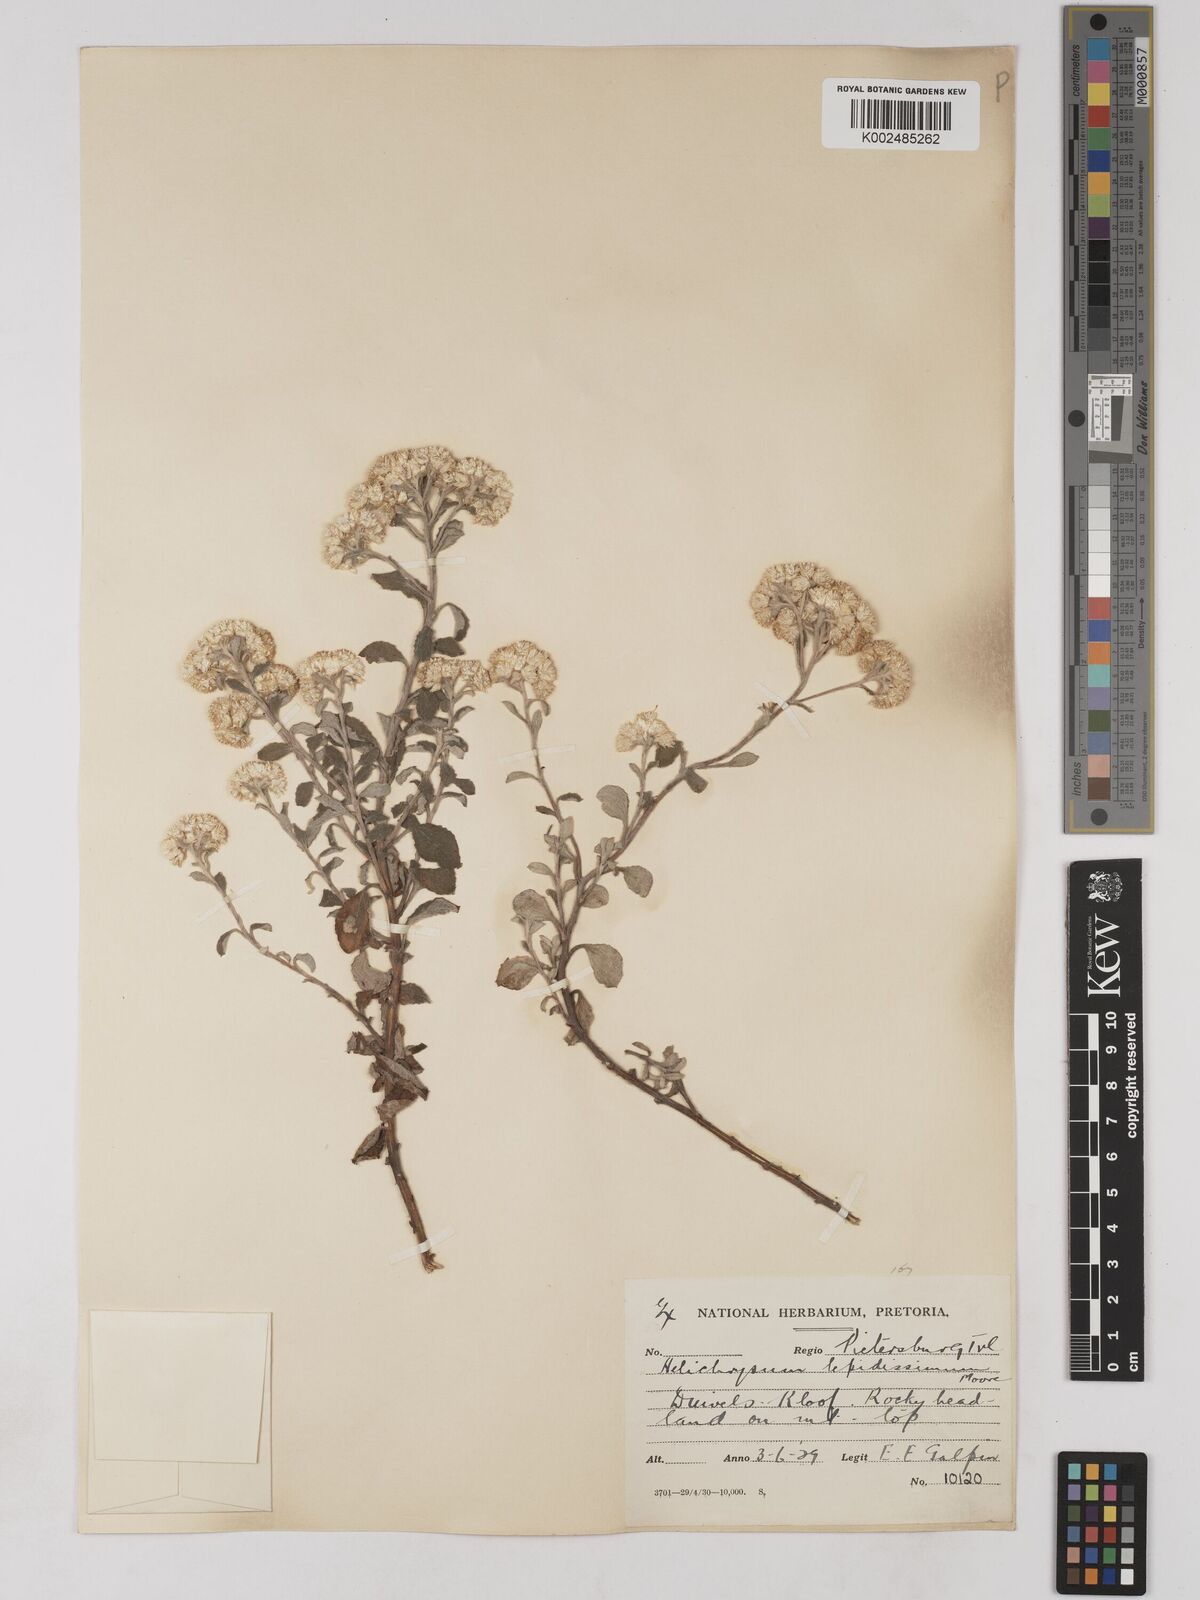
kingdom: Plantae
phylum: Tracheophyta
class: Magnoliopsida
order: Asterales
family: Asteraceae
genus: Helichrysum
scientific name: Helichrysum lepidissimum
